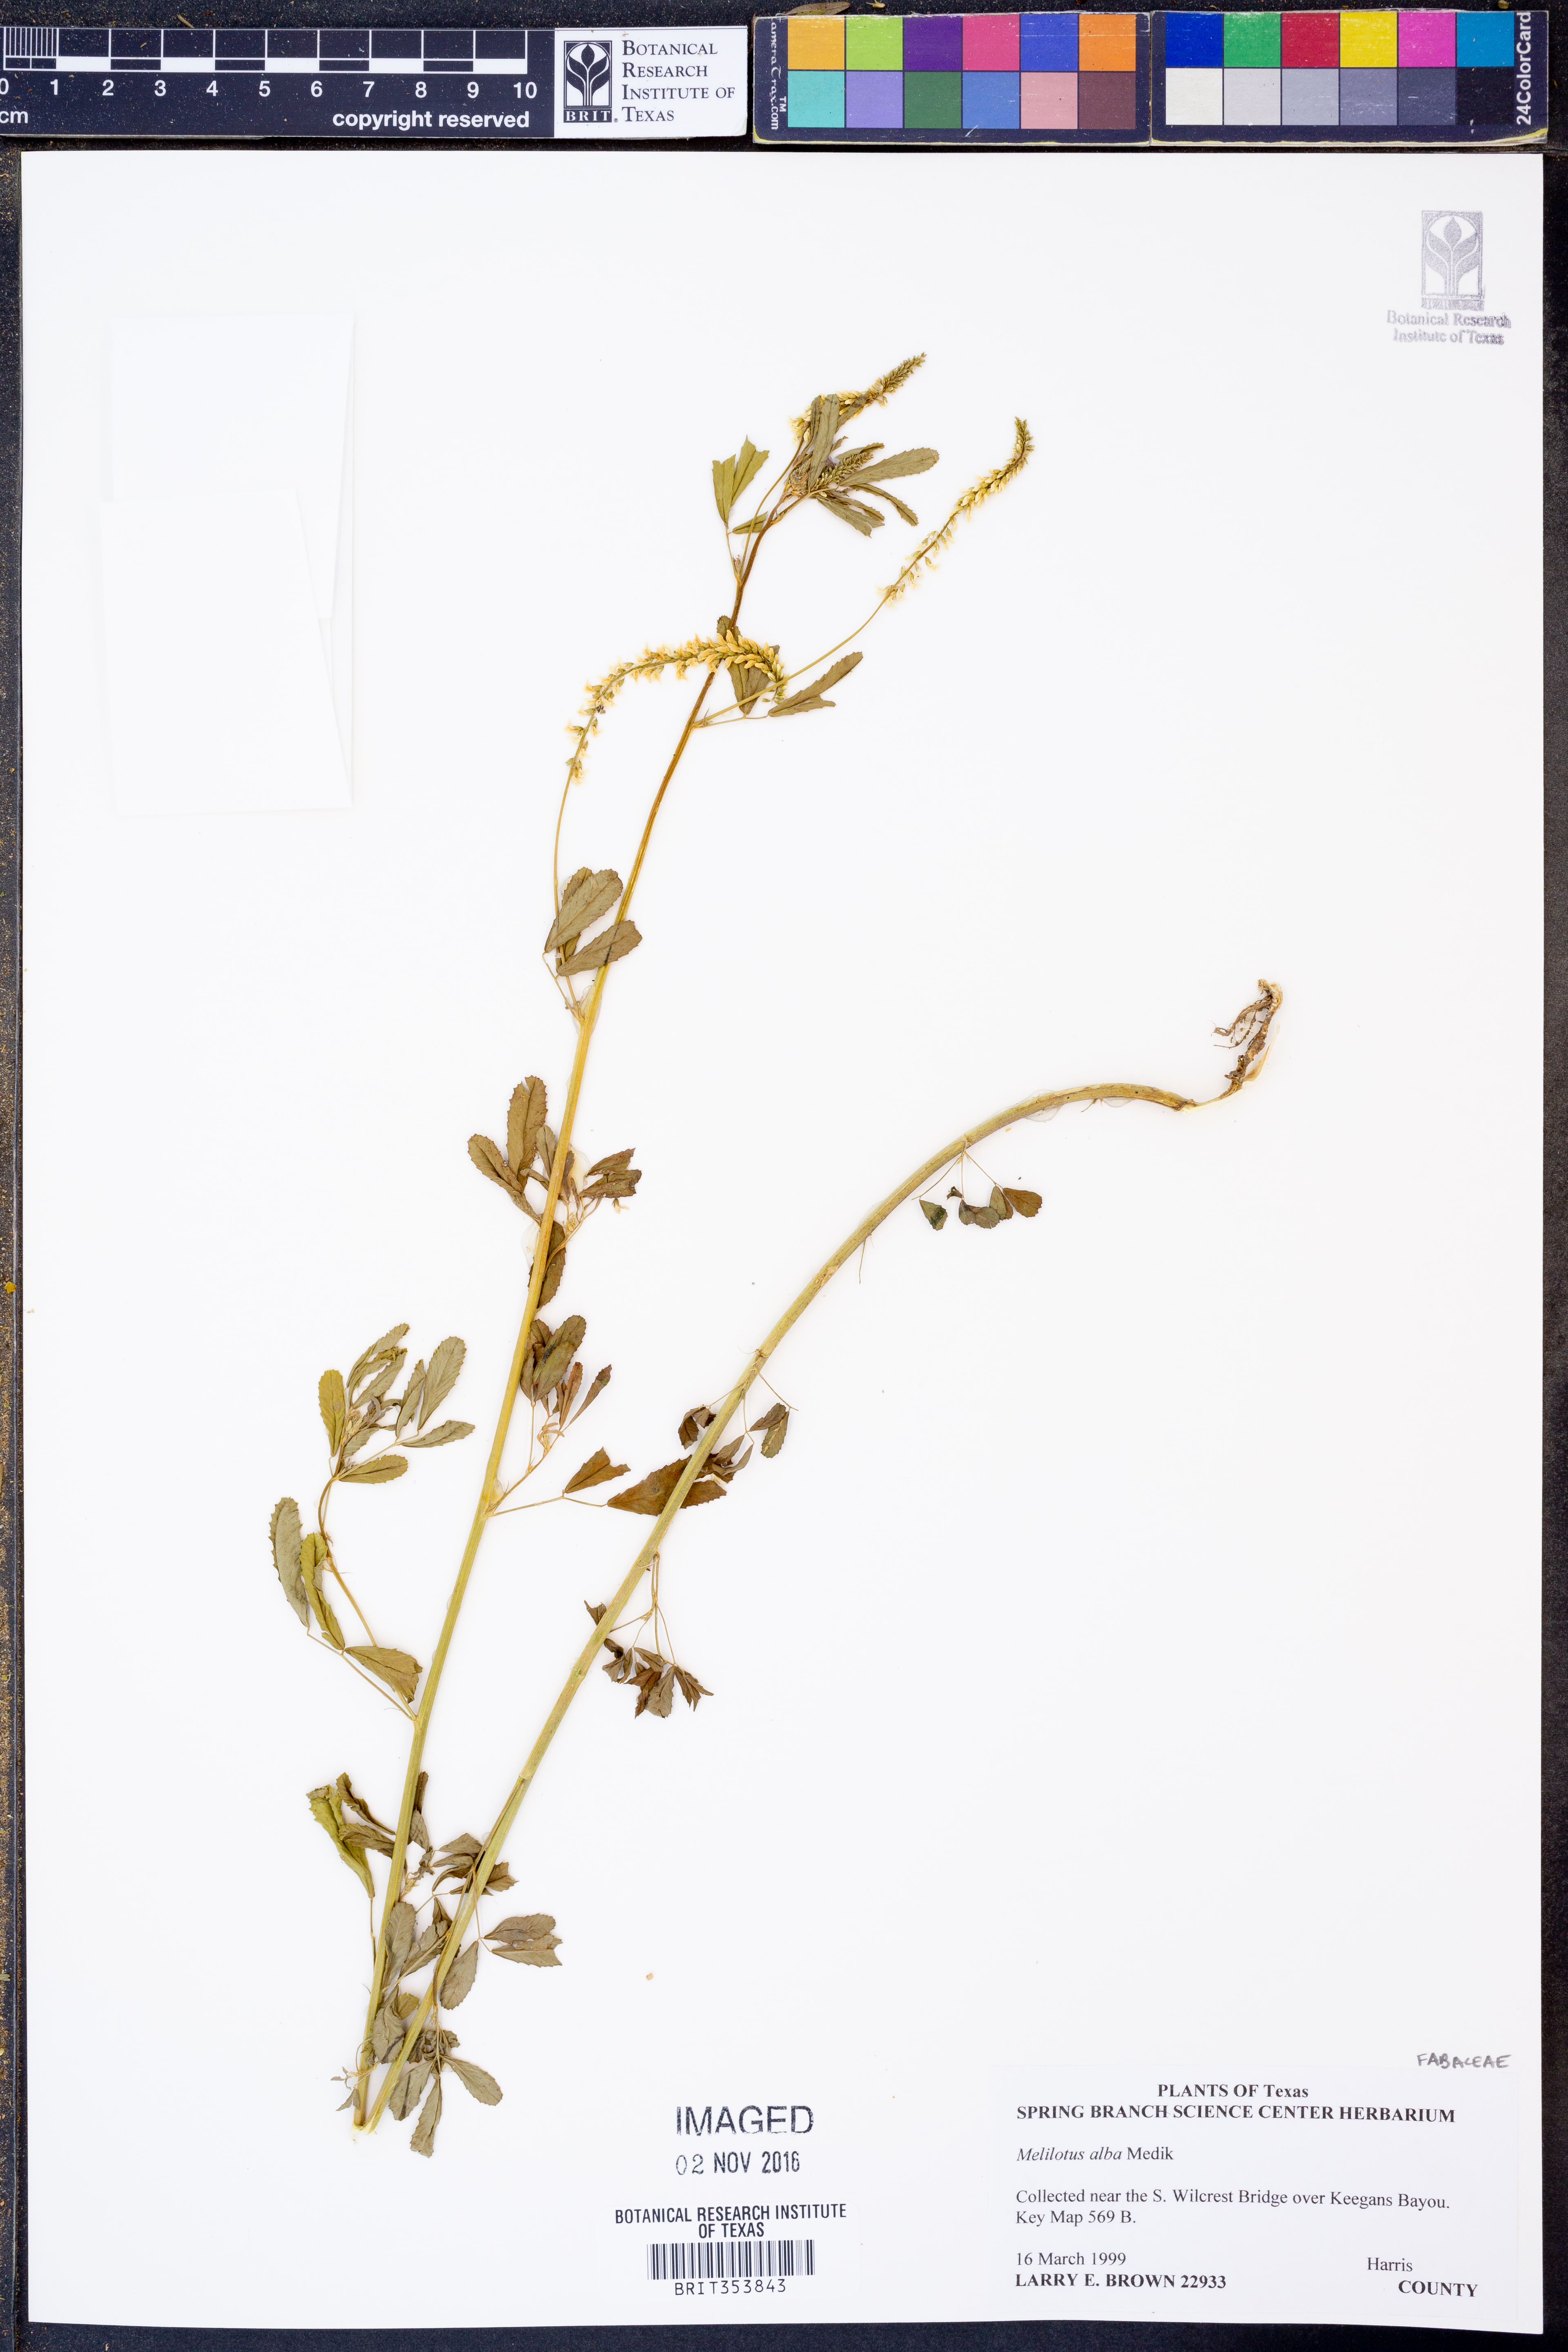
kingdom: Plantae
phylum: Tracheophyta
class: Magnoliopsida
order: Fabales
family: Fabaceae
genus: Melilotus
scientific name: Melilotus albus
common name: White melilot
